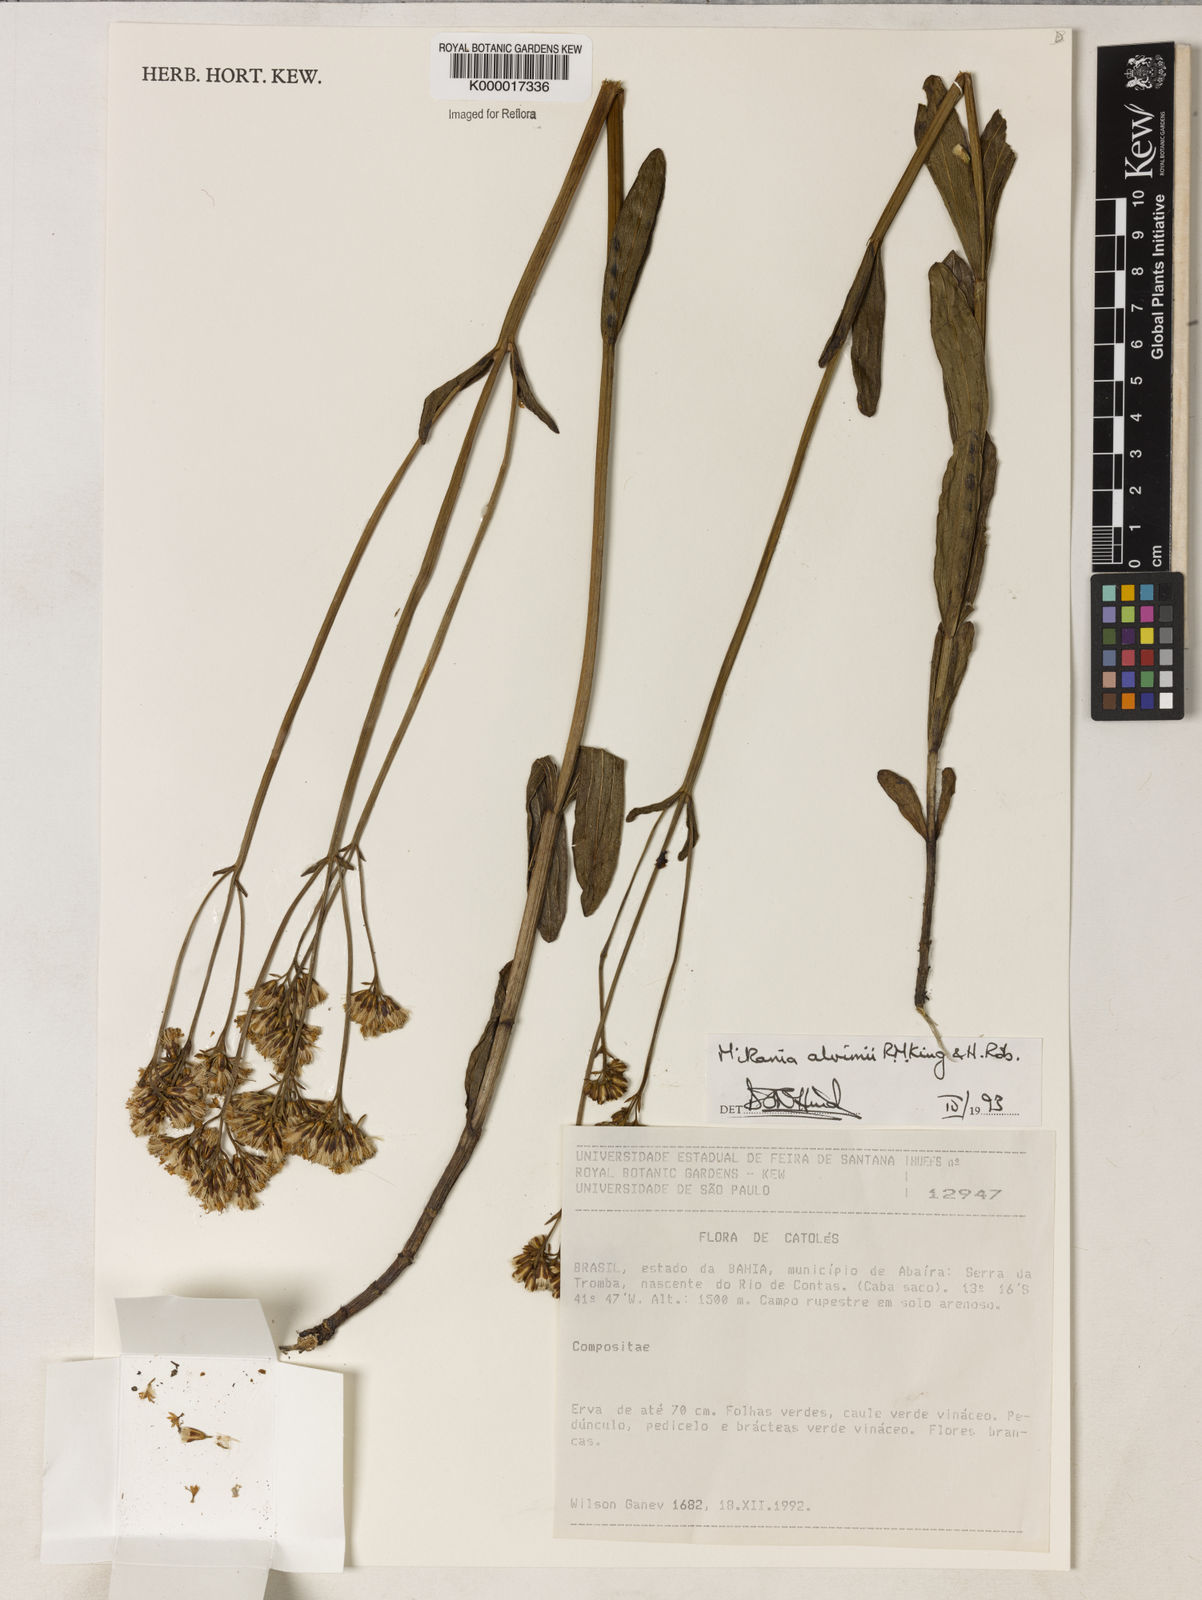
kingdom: Plantae
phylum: Tracheophyta
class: Magnoliopsida
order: Asterales
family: Asteraceae
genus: Mikania
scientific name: Mikania alvimii
